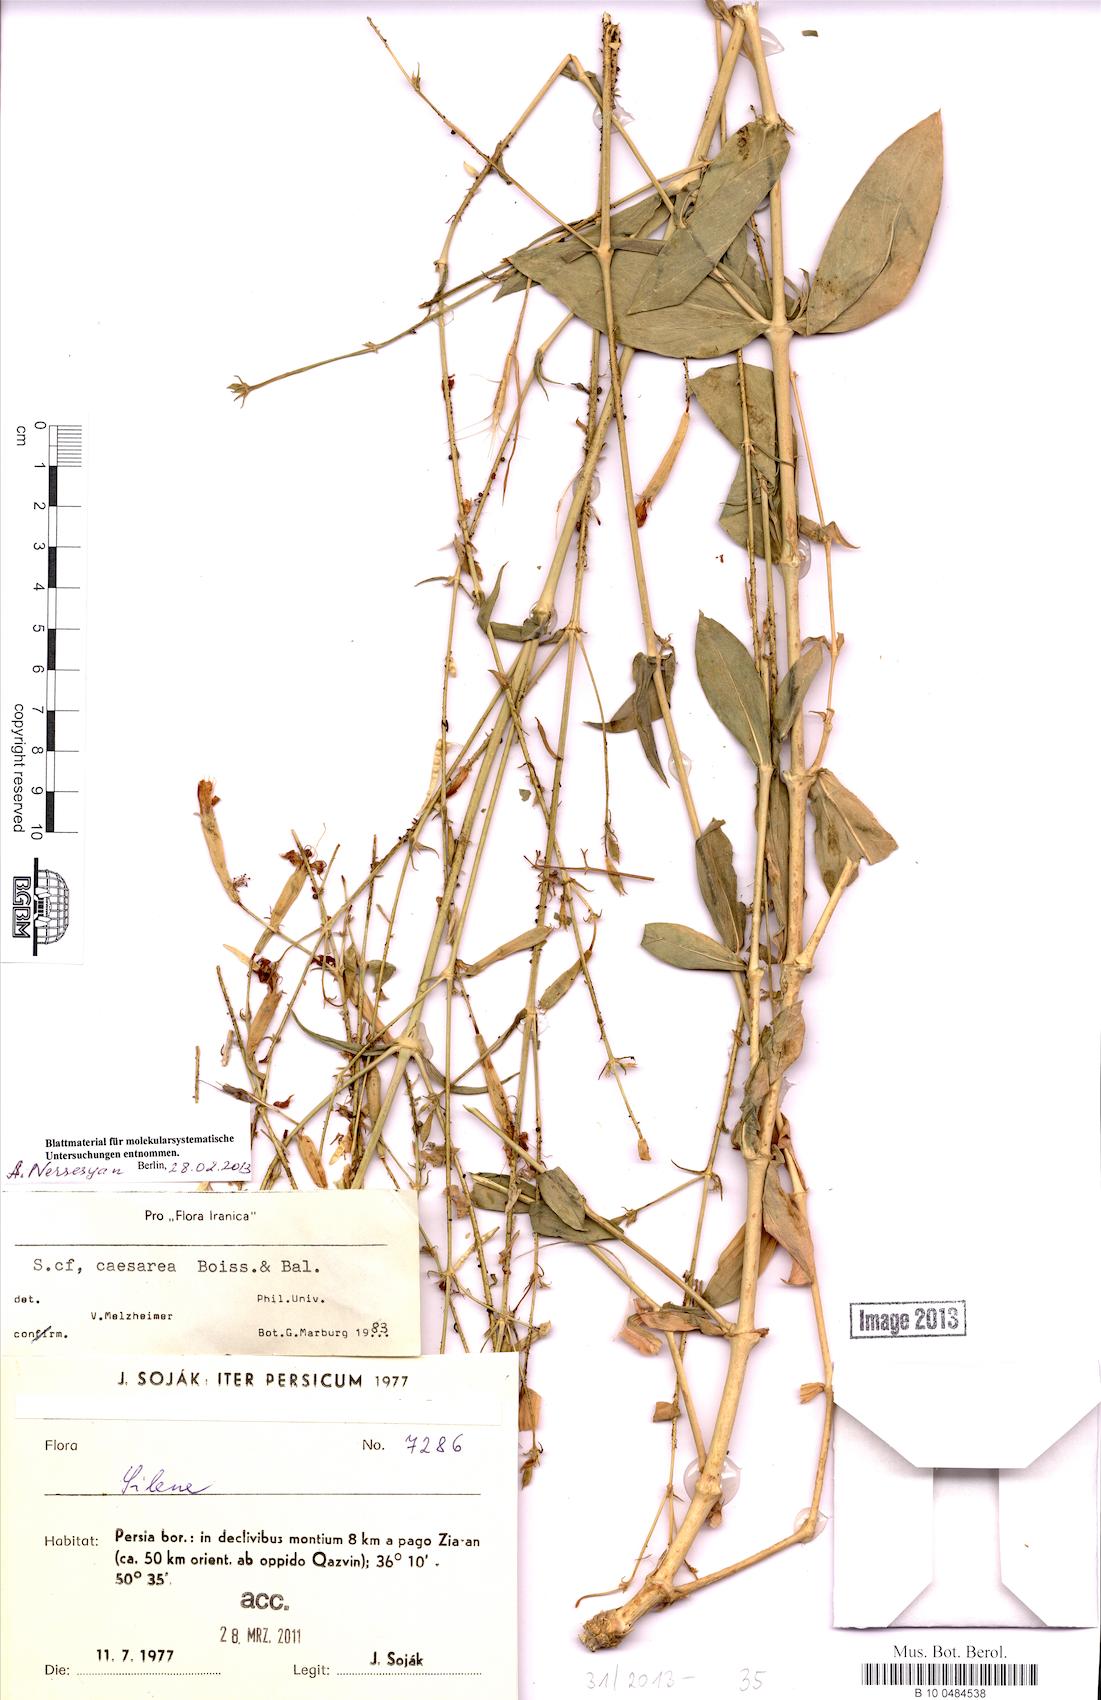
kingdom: Plantae
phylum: Tracheophyta
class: Magnoliopsida
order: Caryophyllales
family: Caryophyllaceae
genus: Silene
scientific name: Silene caesarea
